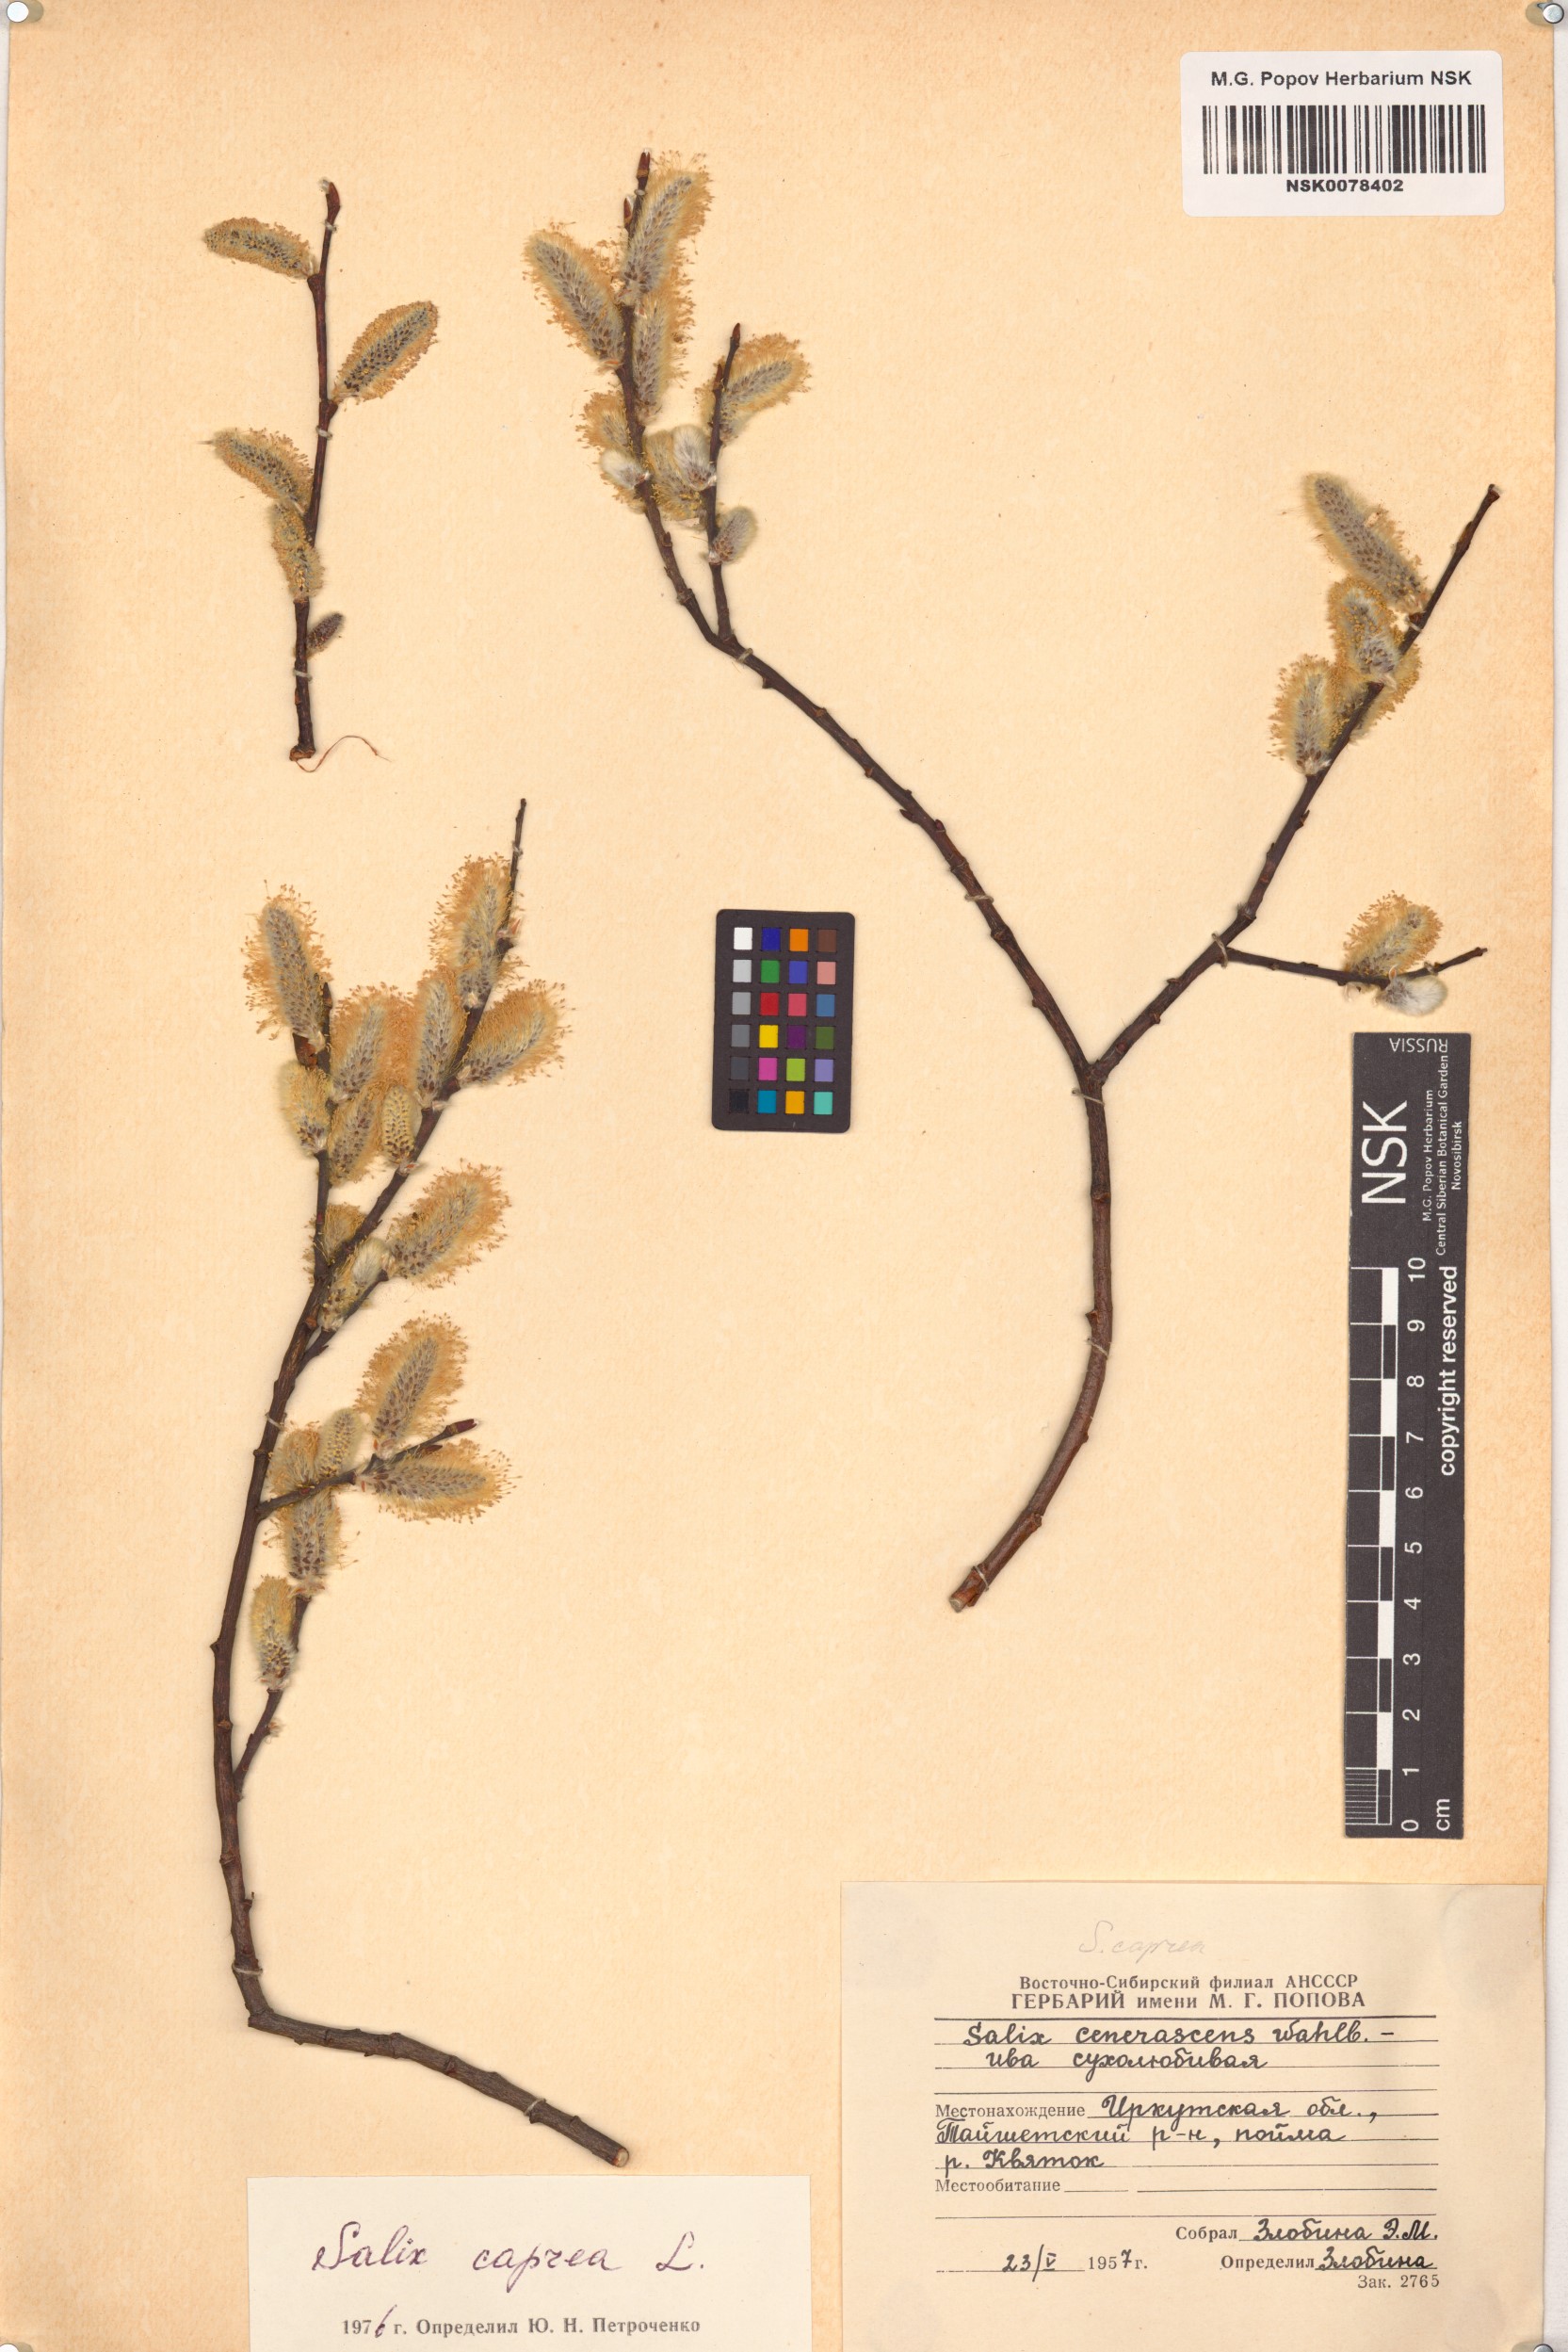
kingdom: Plantae
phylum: Tracheophyta
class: Magnoliopsida
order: Malpighiales
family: Salicaceae
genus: Salix
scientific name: Salix caprea
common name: Goat willow
